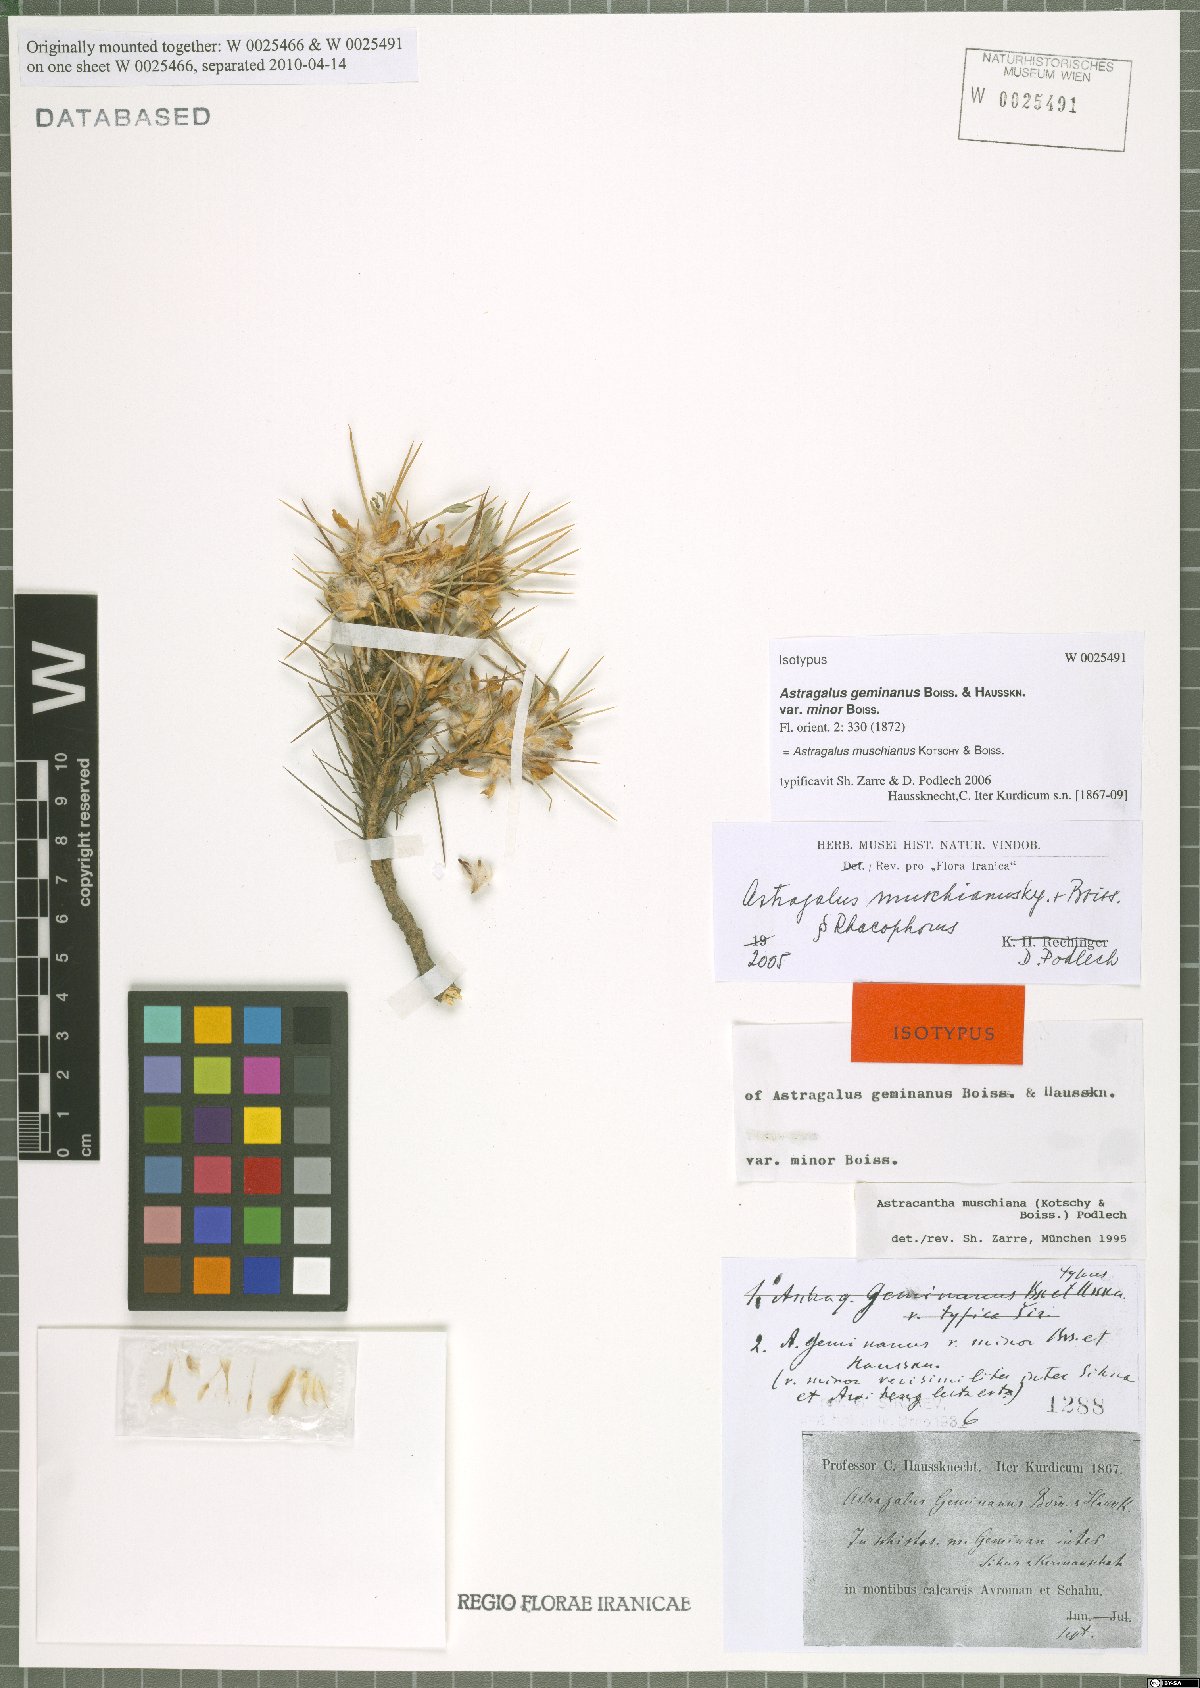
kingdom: Plantae
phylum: Tracheophyta
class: Magnoliopsida
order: Fabales
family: Fabaceae
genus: Astragalus
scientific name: Astragalus muschianus
